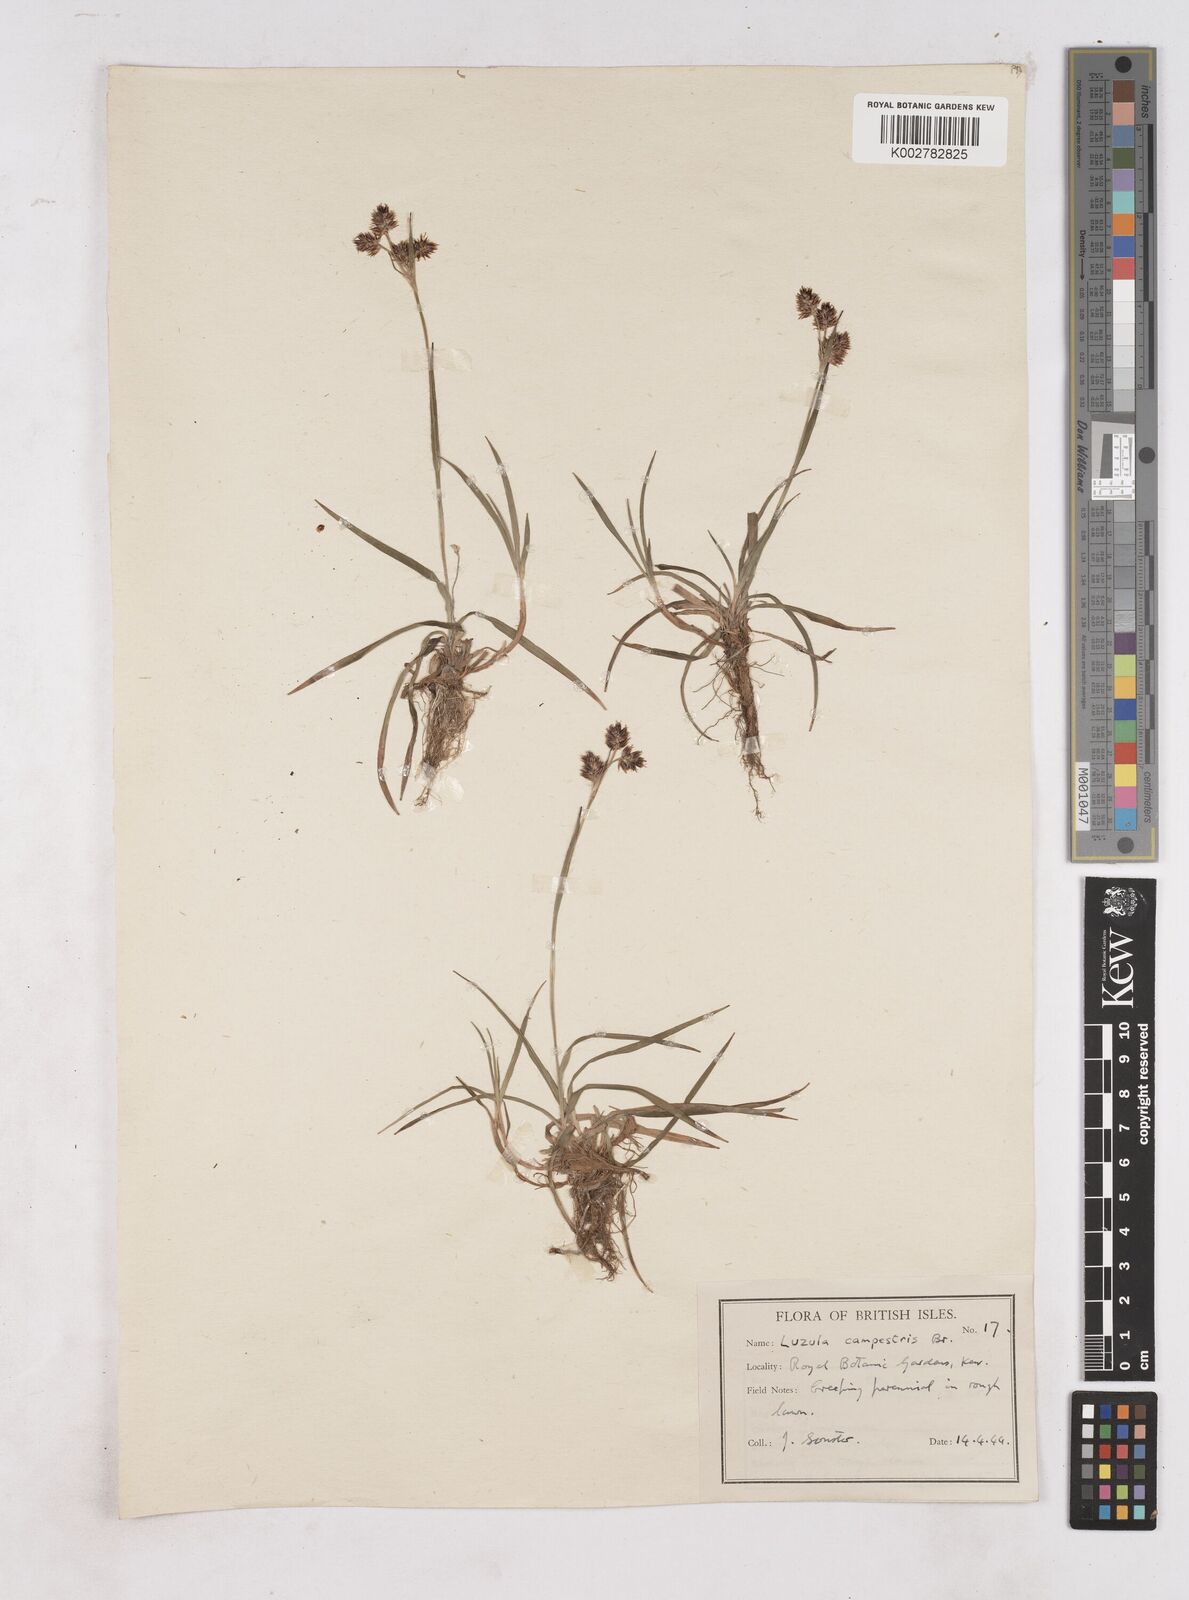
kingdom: Plantae
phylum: Tracheophyta
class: Liliopsida
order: Poales
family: Juncaceae
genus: Luzula
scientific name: Luzula campestris
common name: Field wood-rush
